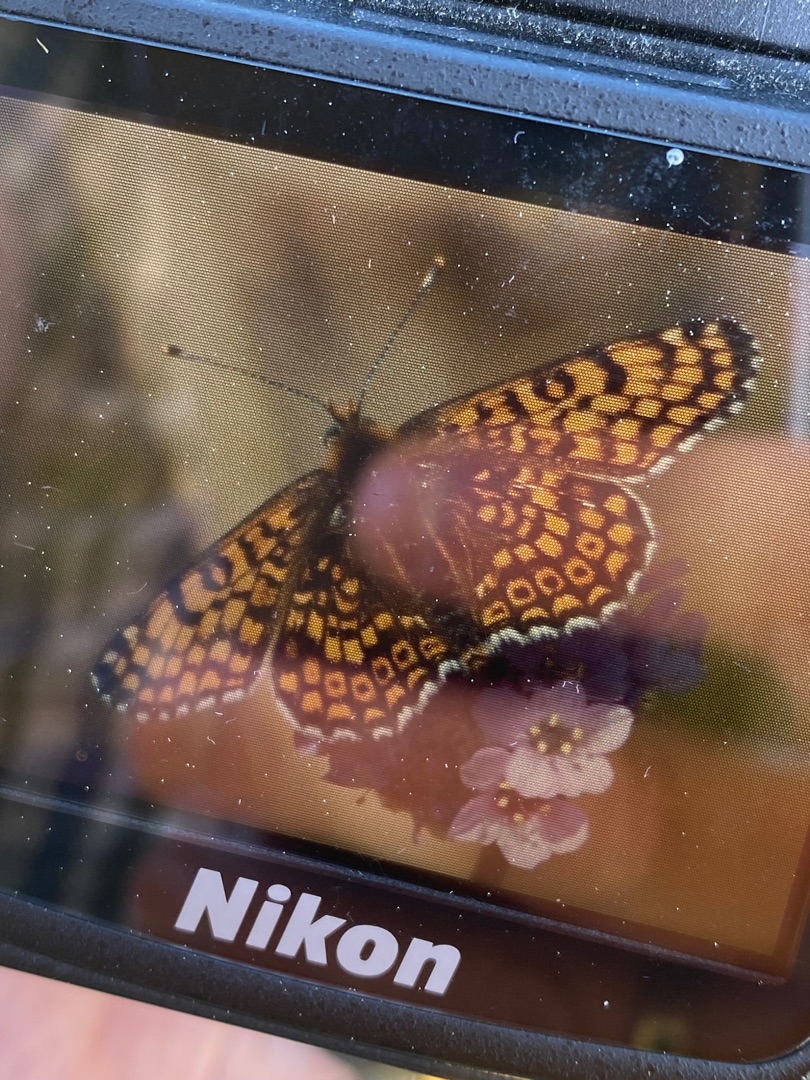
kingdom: Animalia
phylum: Arthropoda
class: Insecta
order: Lepidoptera
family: Nymphalidae
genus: Melitaea
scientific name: Melitaea cinxia
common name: Okkergul pletvinge
